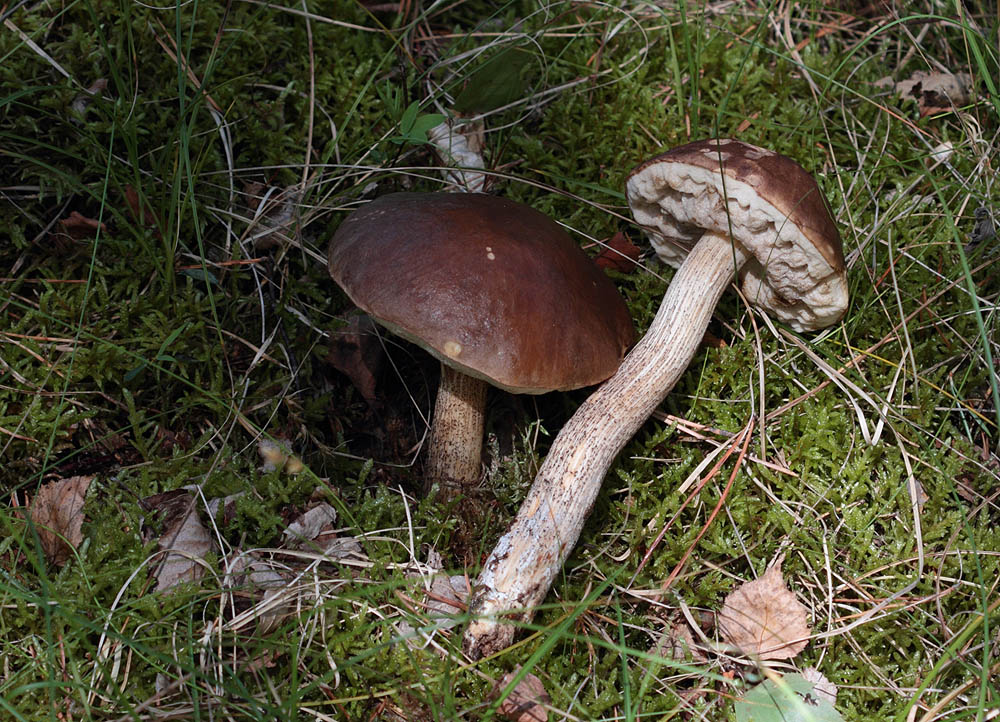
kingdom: Fungi
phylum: Basidiomycota
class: Agaricomycetes
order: Boletales
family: Boletaceae
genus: Leccinum
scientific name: Leccinum scabrum
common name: brun skælrørhat
